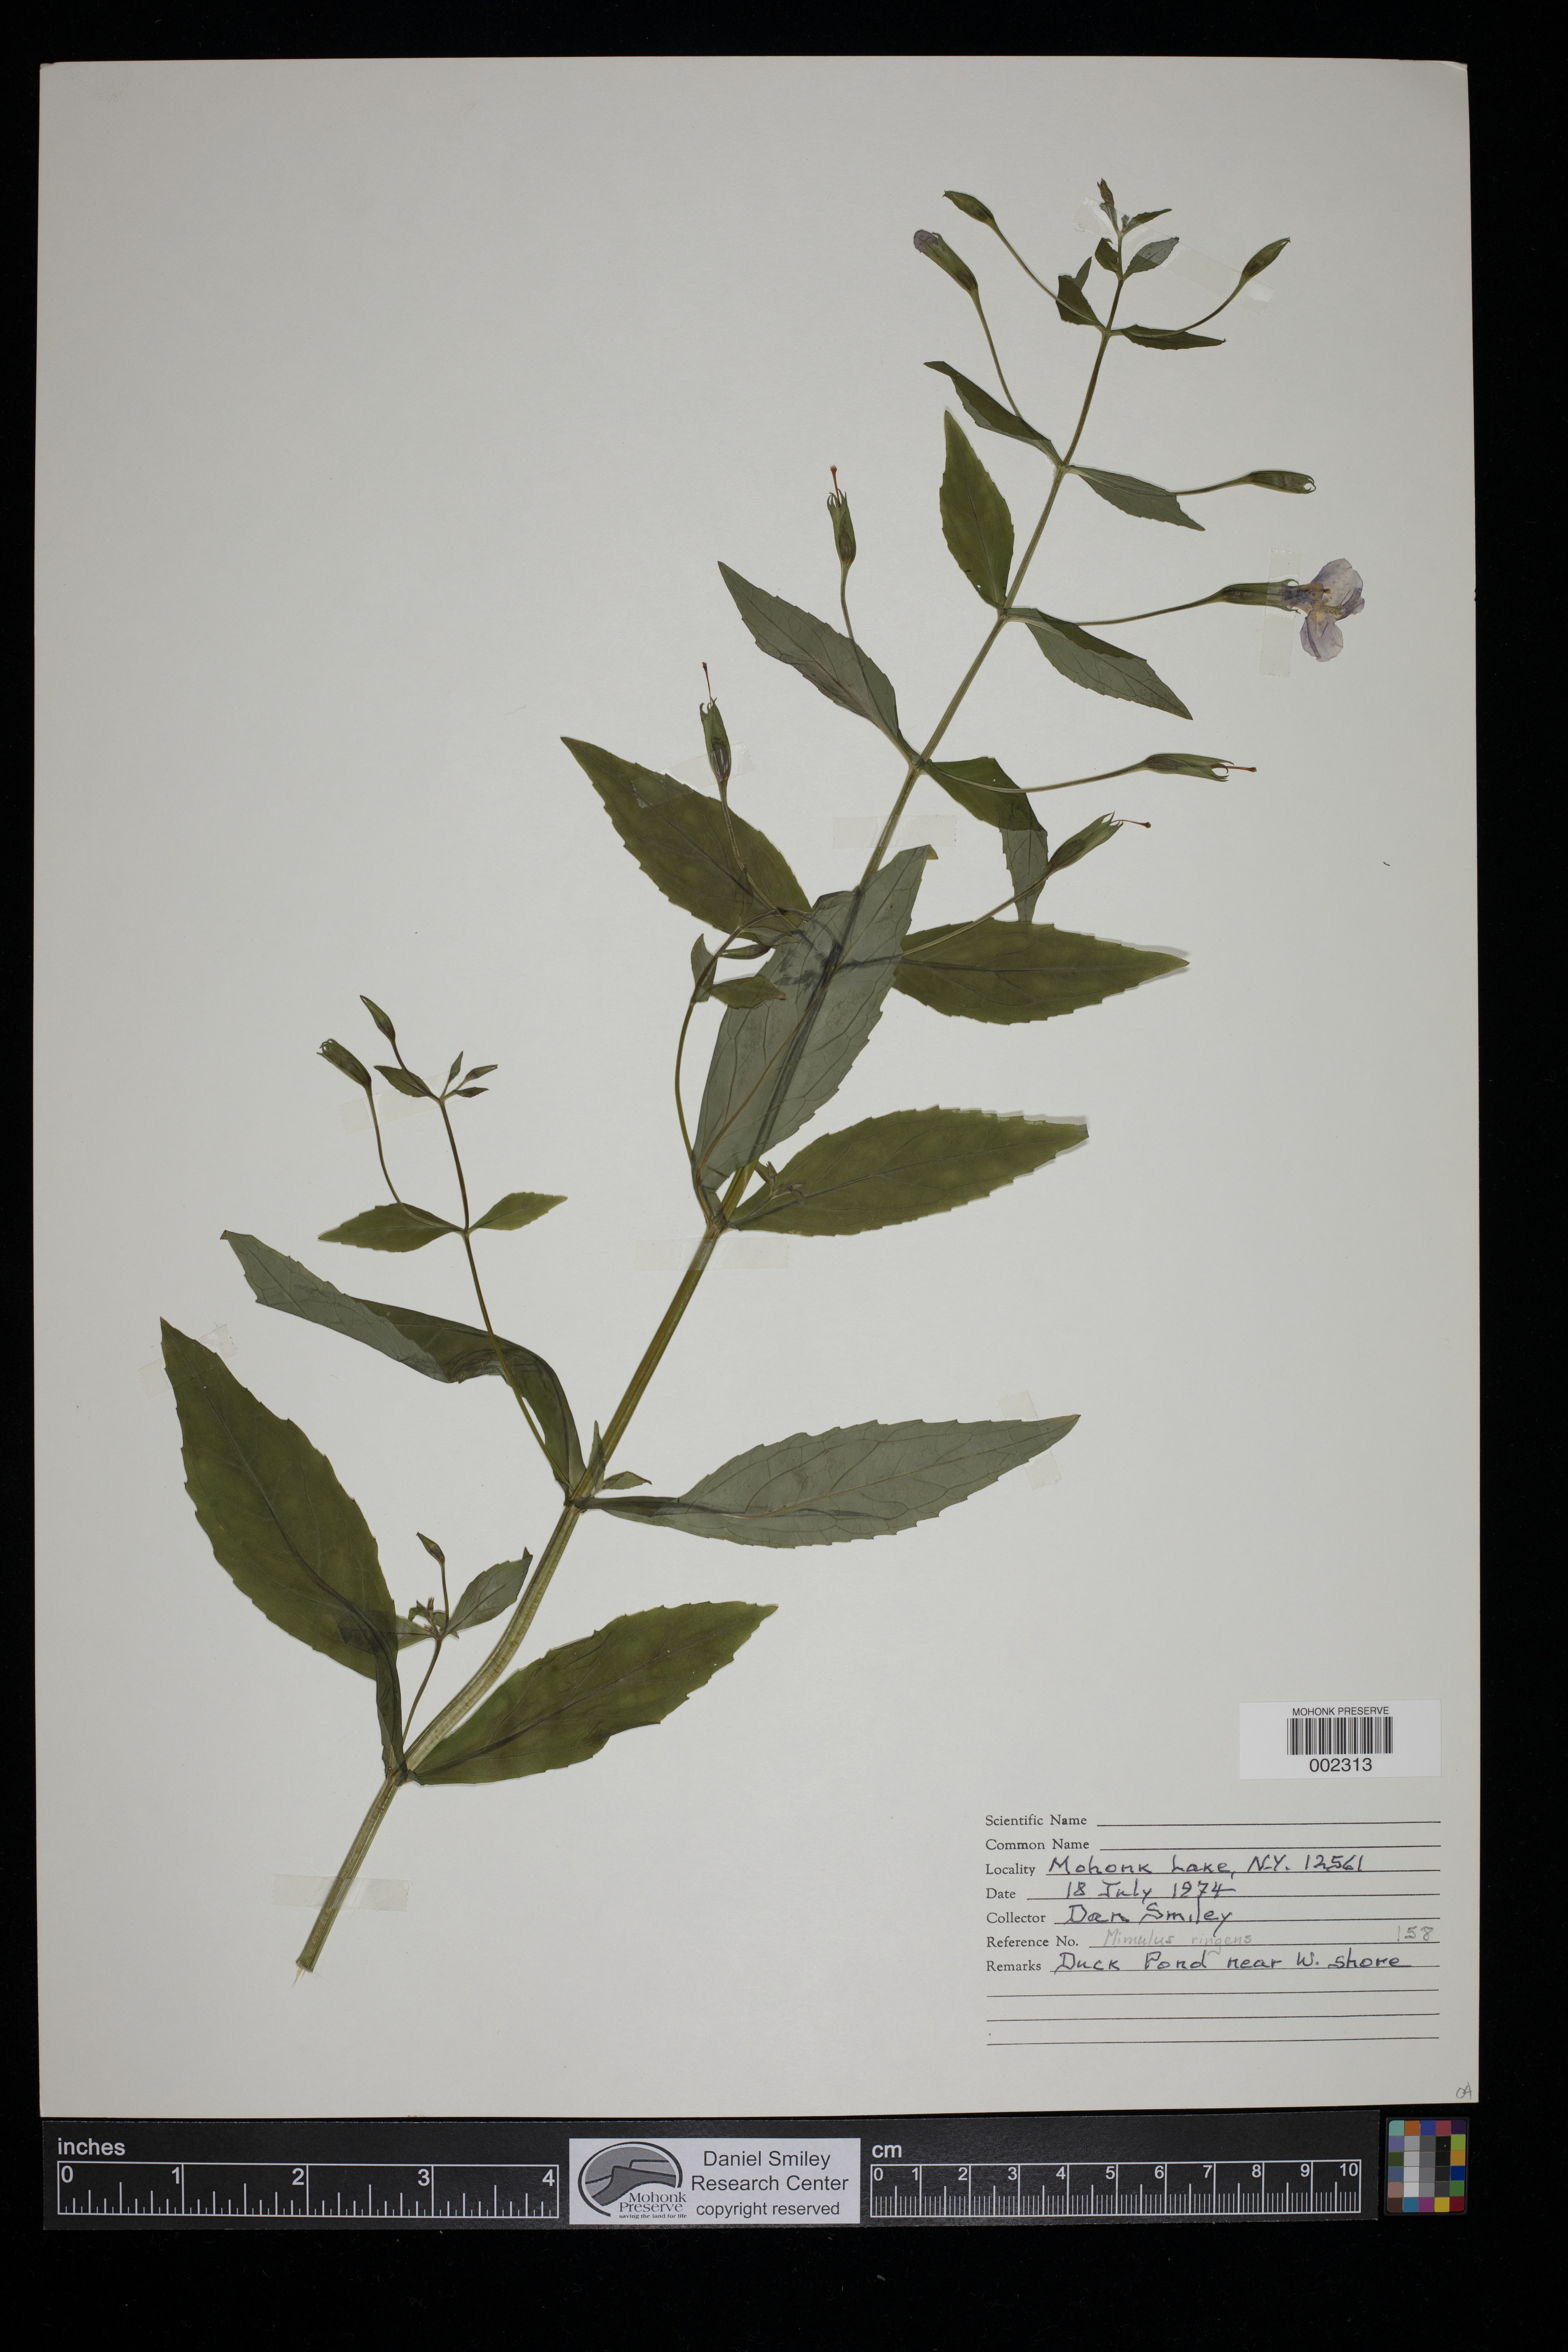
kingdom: Plantae
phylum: Tracheophyta
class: Magnoliopsida
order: Lamiales
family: Phrymaceae
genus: Mimulus
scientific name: Mimulus ringens
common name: Allegheny monkeyflower
